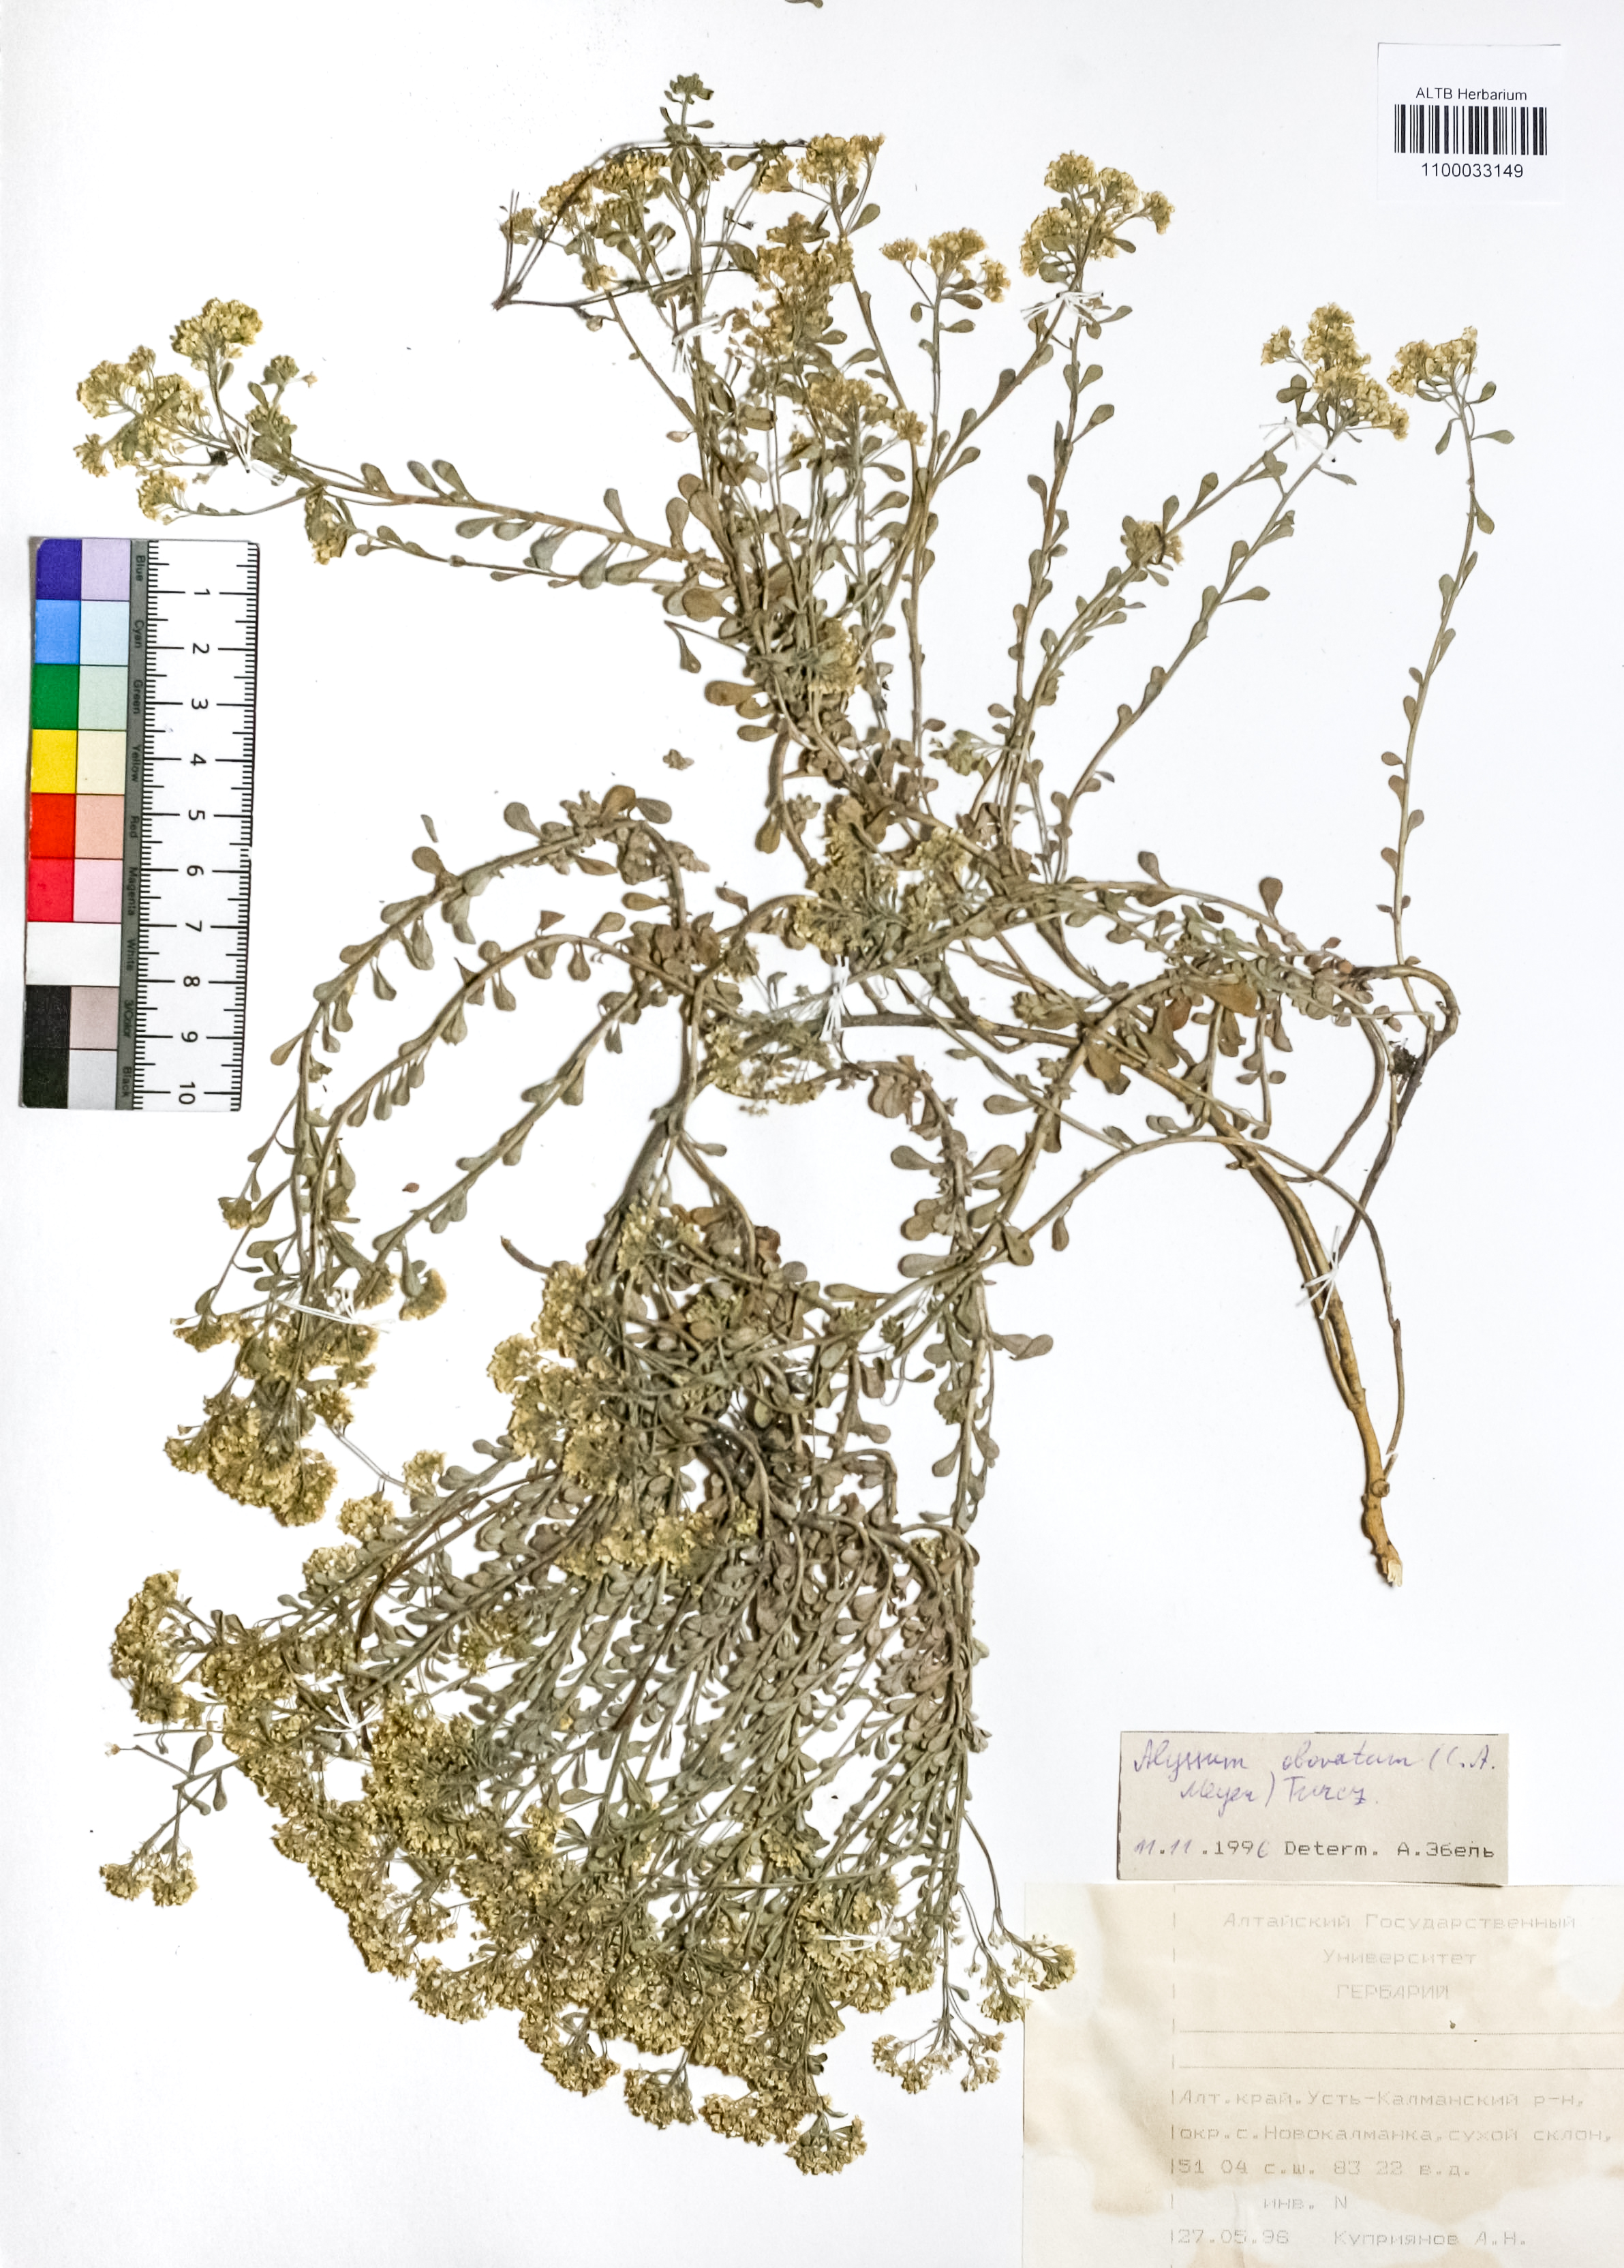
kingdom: Plantae
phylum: Tracheophyta
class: Magnoliopsida
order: Brassicales
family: Brassicaceae
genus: Odontarrhena
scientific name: Odontarrhena obovata
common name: American alyssum
